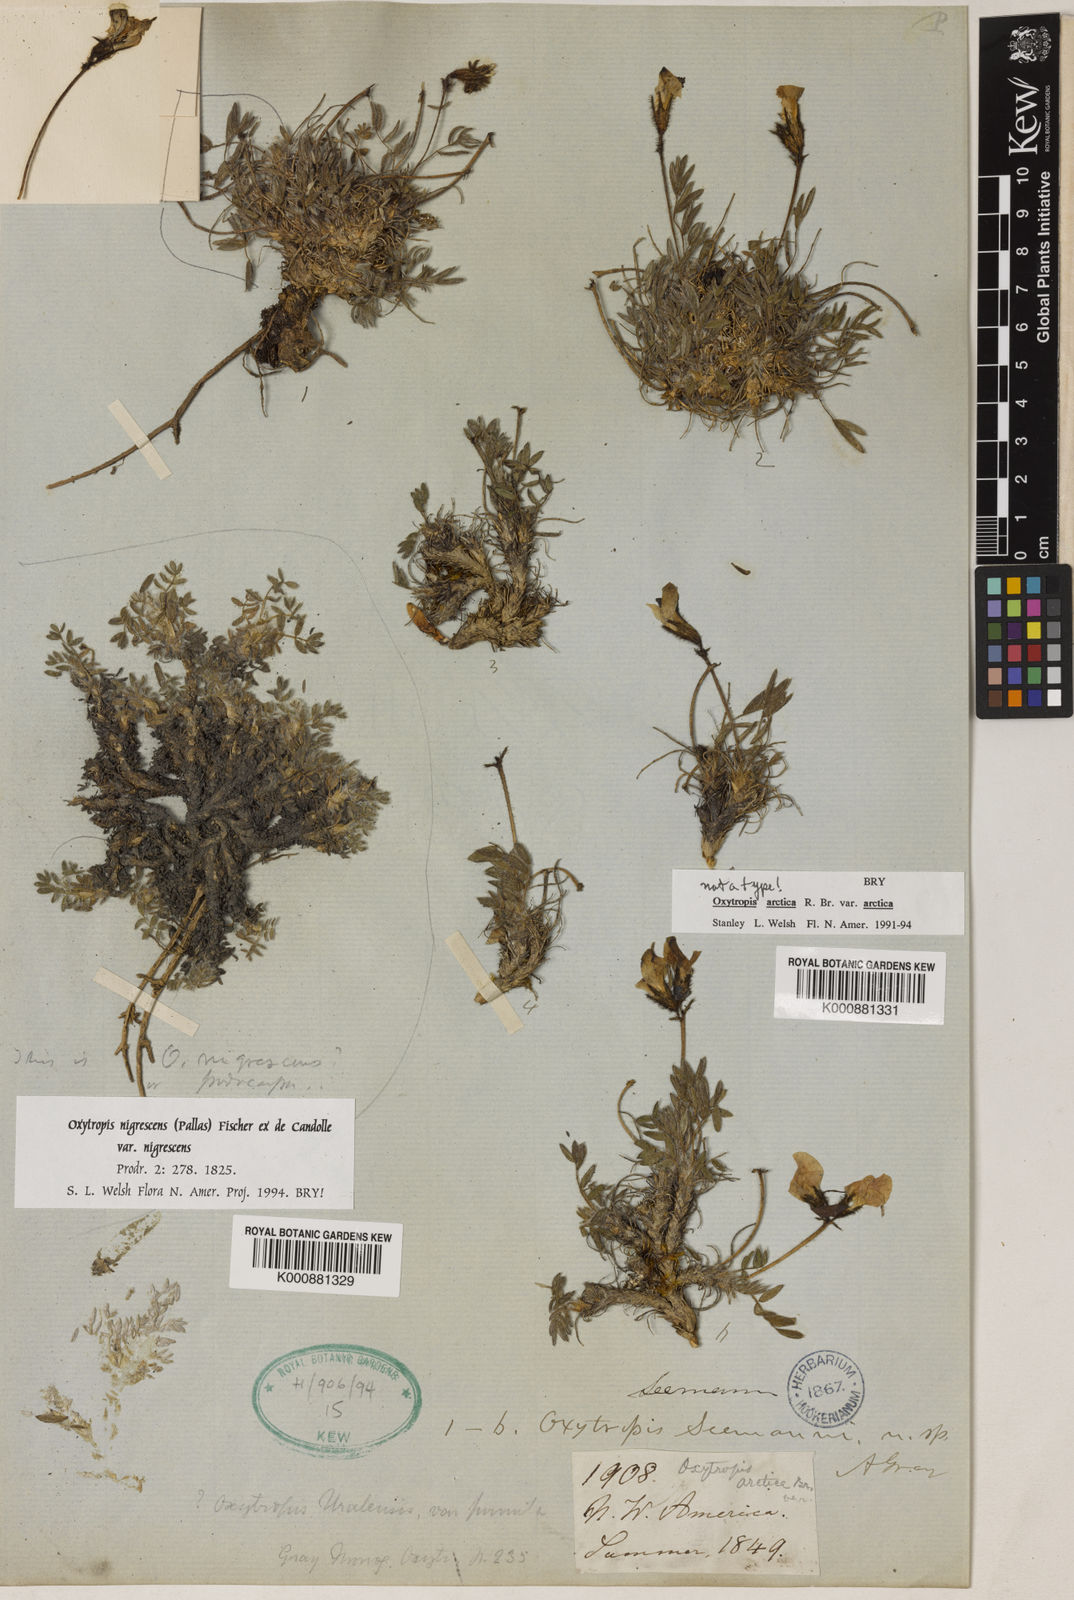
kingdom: Plantae
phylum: Tracheophyta
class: Magnoliopsida
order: Fabales
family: Fabaceae
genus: Oxytropis
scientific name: Oxytropis nigrescens
